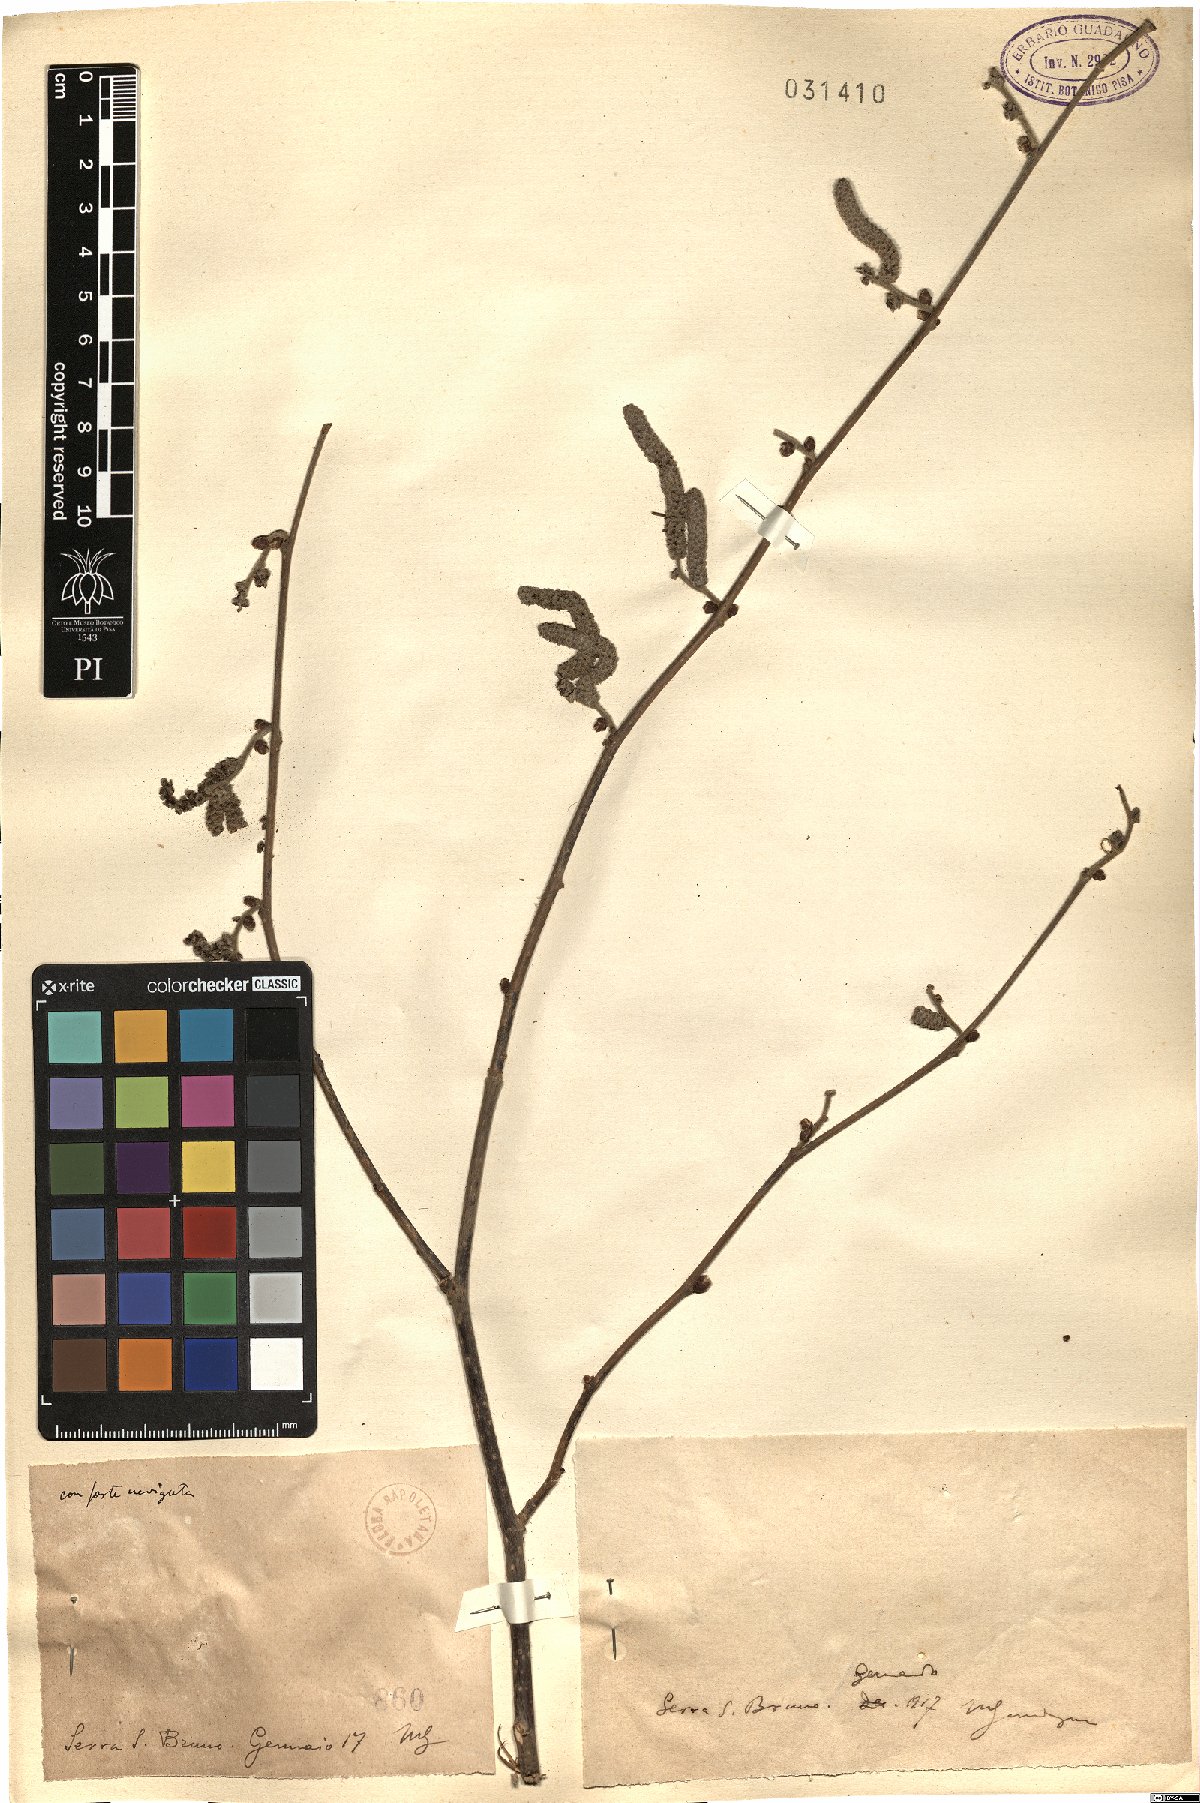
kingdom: Plantae
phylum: Tracheophyta
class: Magnoliopsida
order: Fagales
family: Betulaceae
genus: Corylus
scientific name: Corylus
